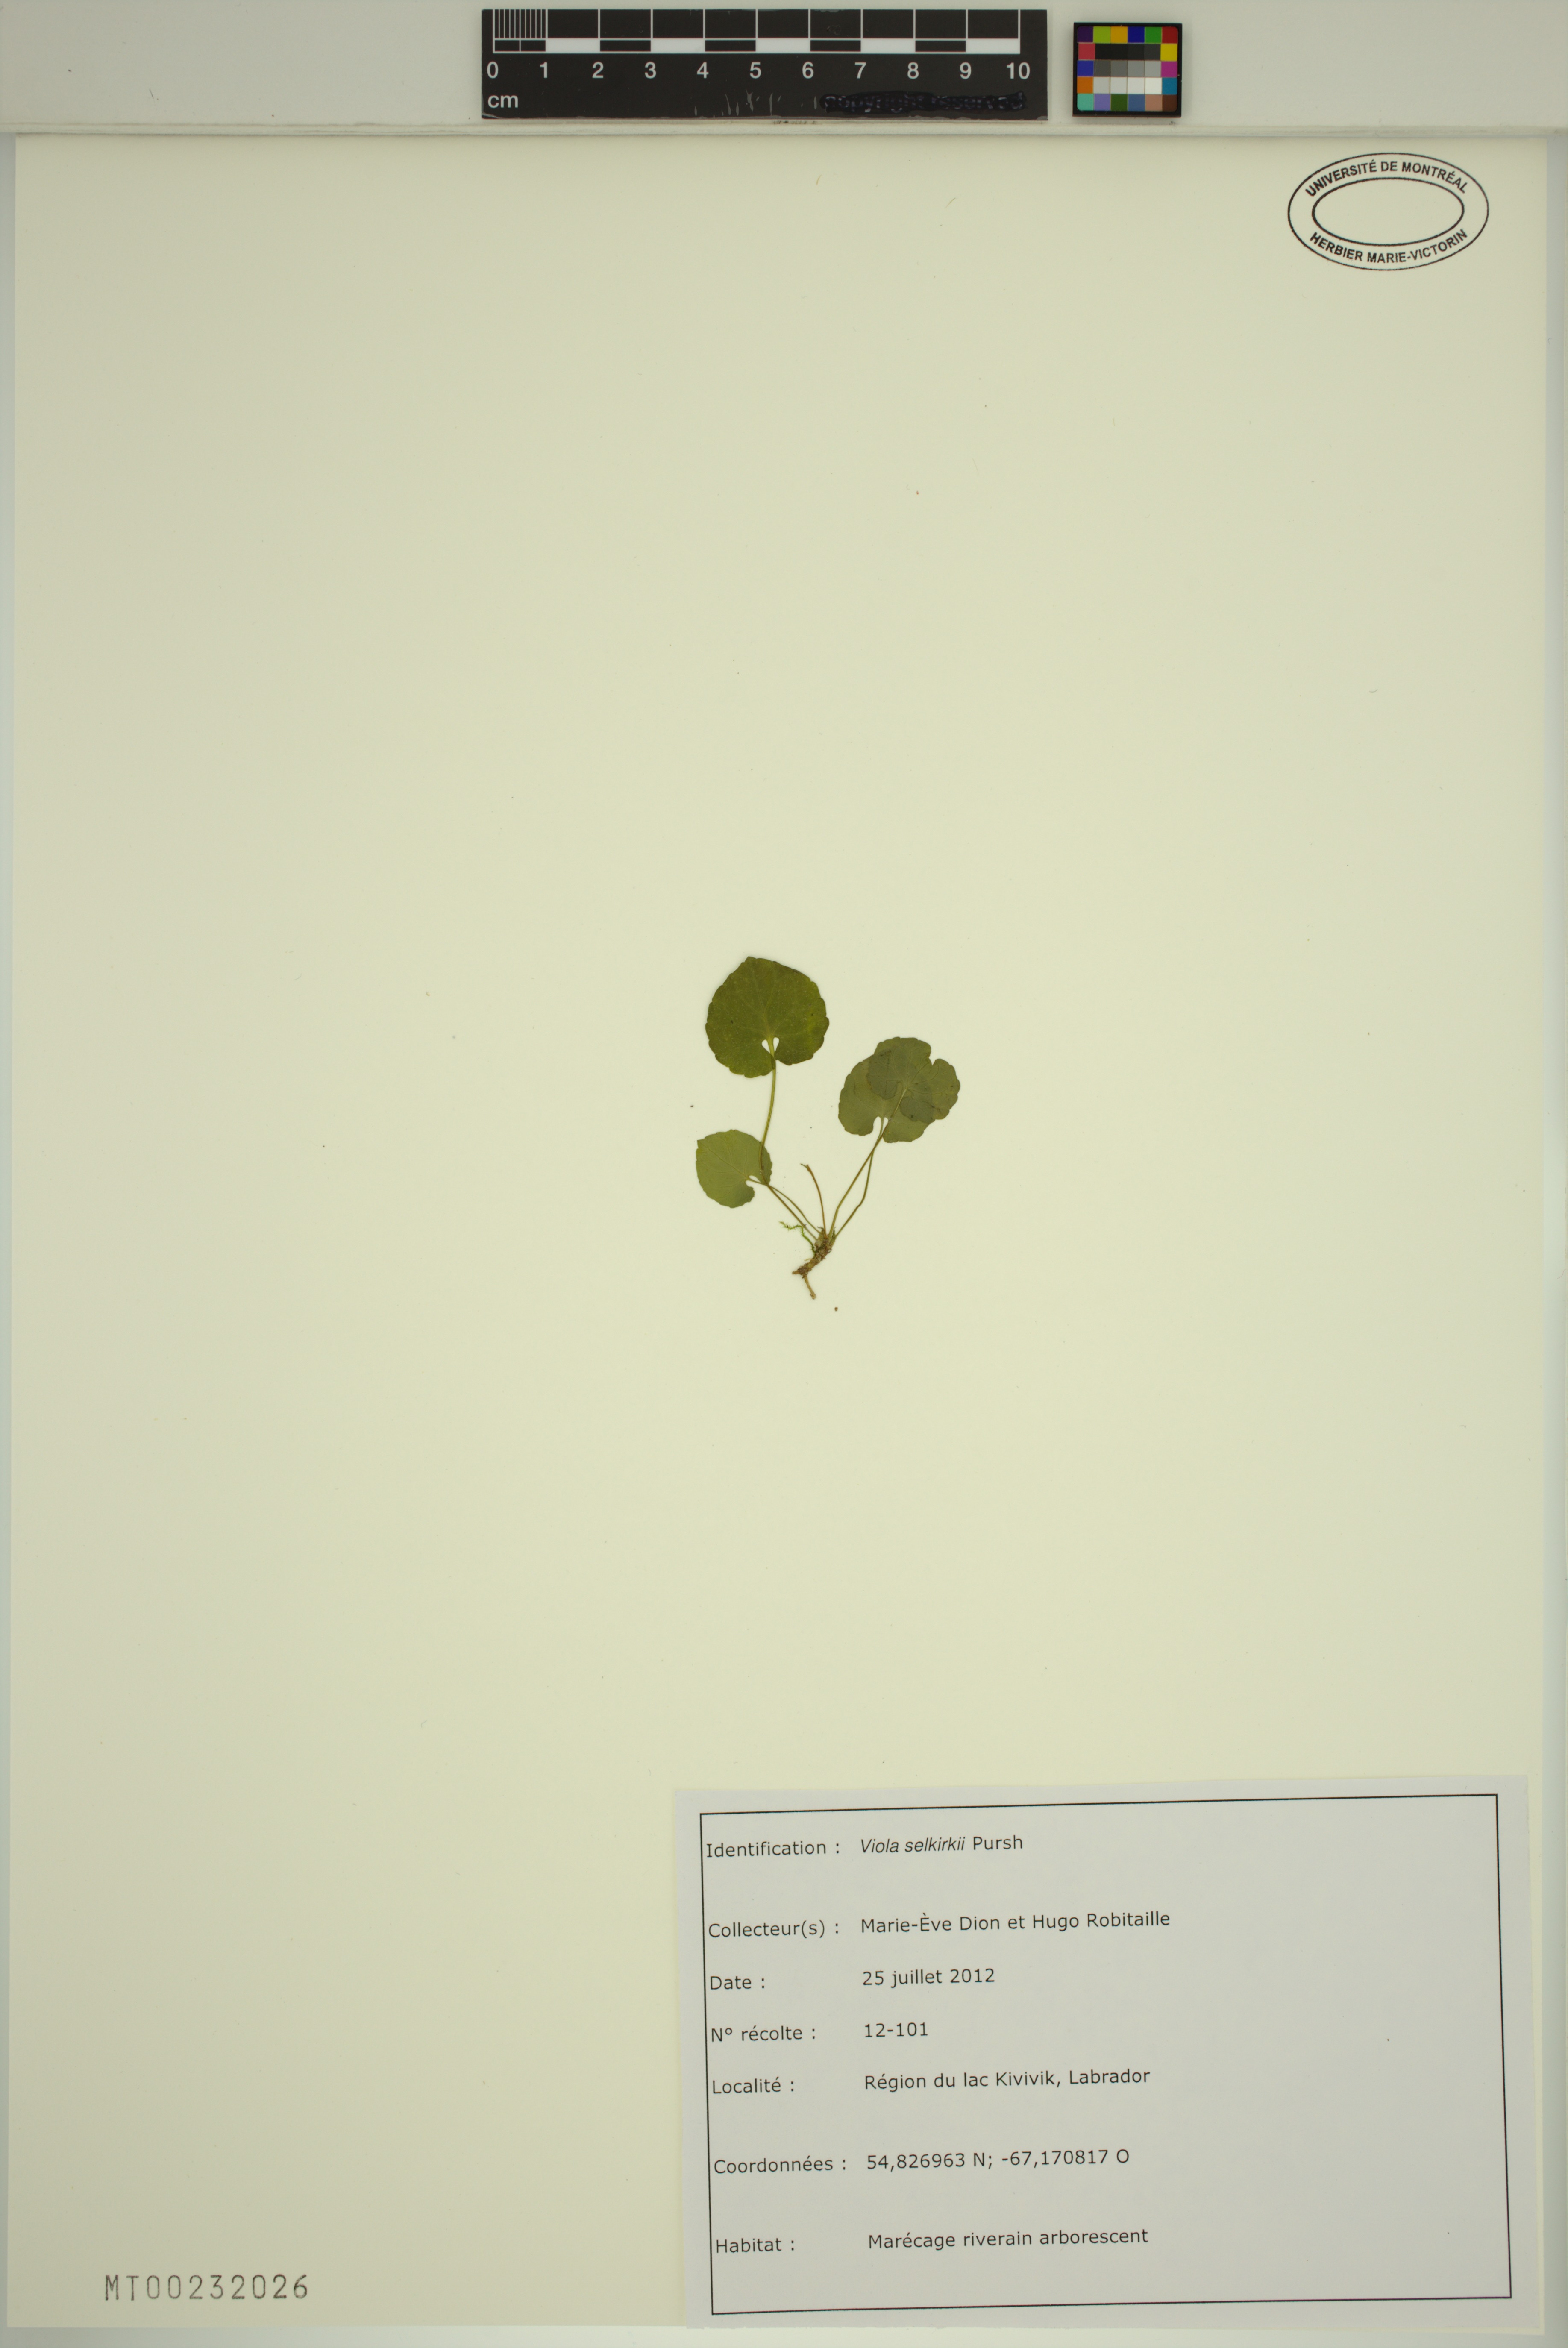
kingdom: Plantae
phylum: Tracheophyta
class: Magnoliopsida
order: Malpighiales
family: Violaceae
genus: Viola
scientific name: Viola selkirkii
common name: Selkirk's violet
